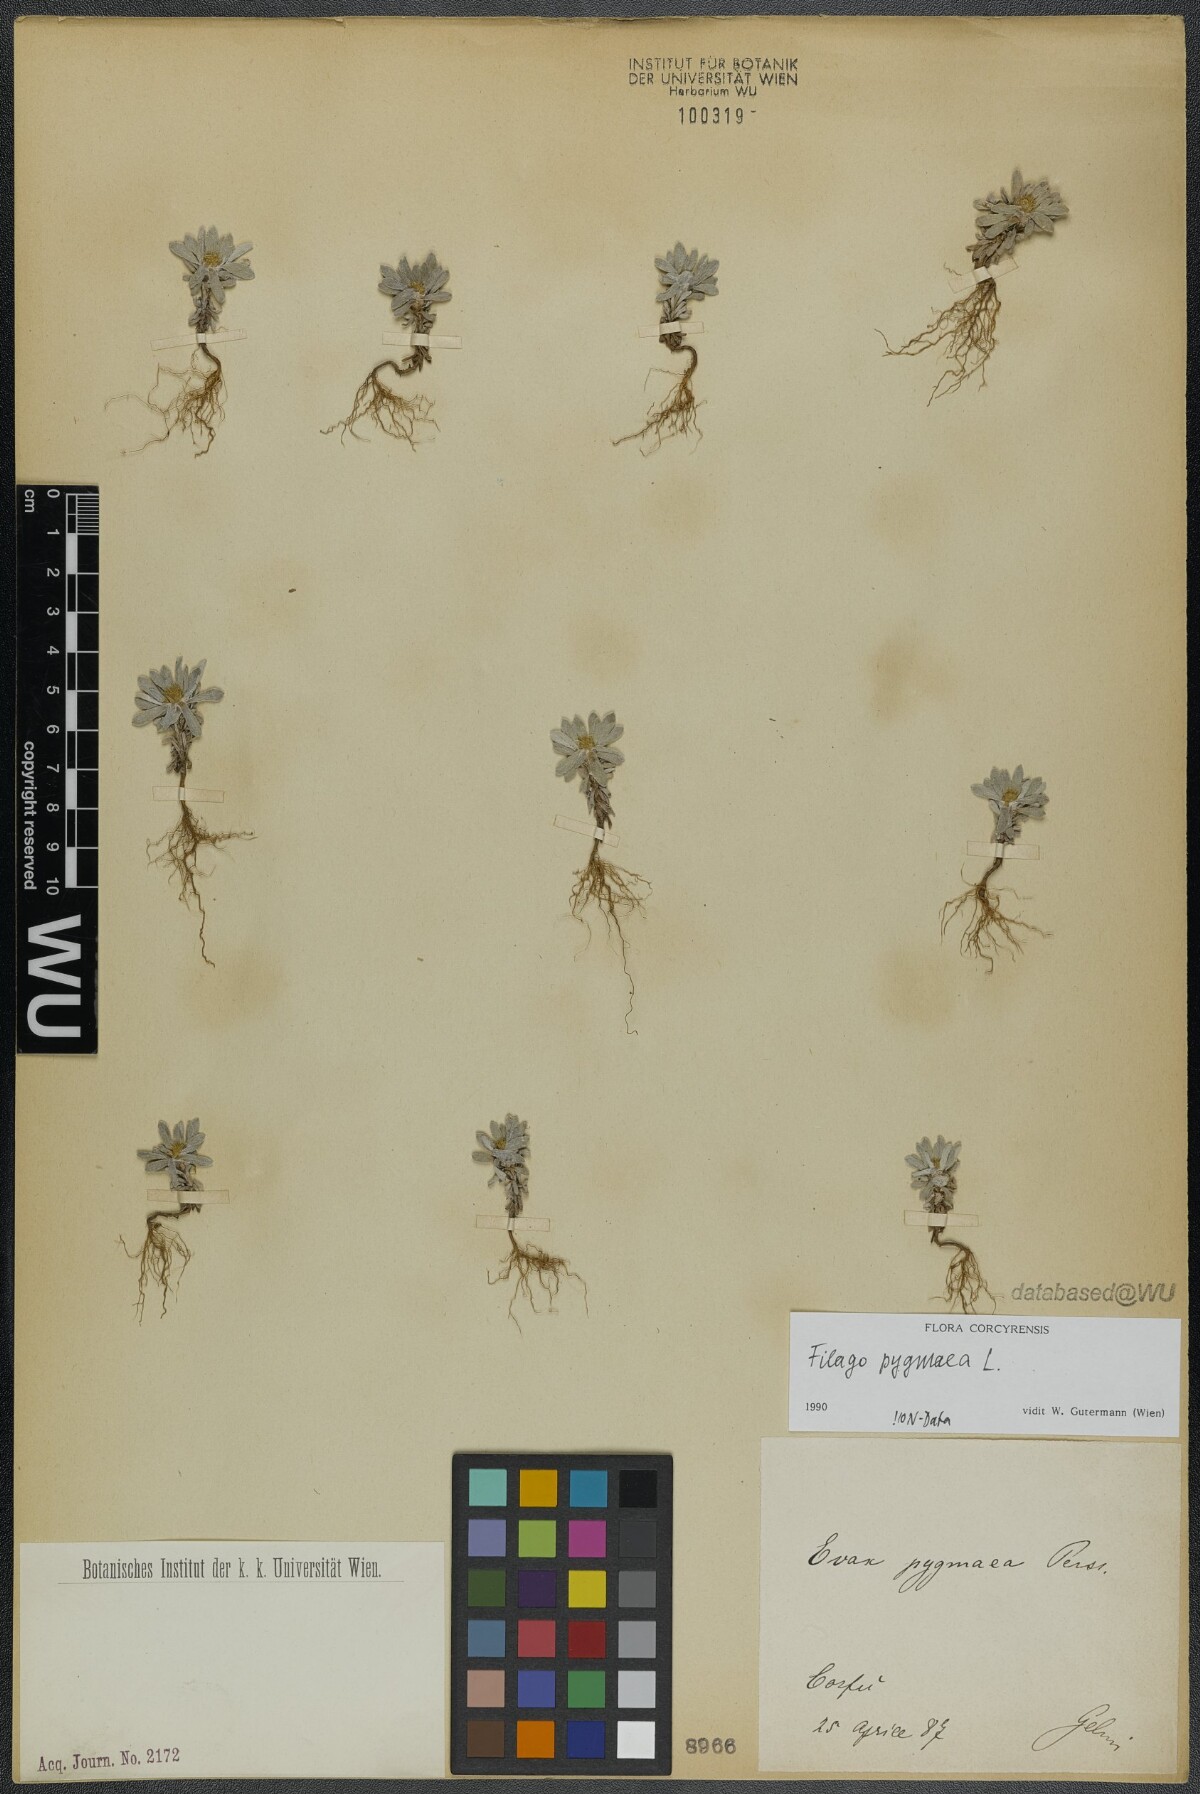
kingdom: Plantae
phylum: Tracheophyta
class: Magnoliopsida
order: Asterales
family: Asteraceae
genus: Filago
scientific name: Filago pygmaea
